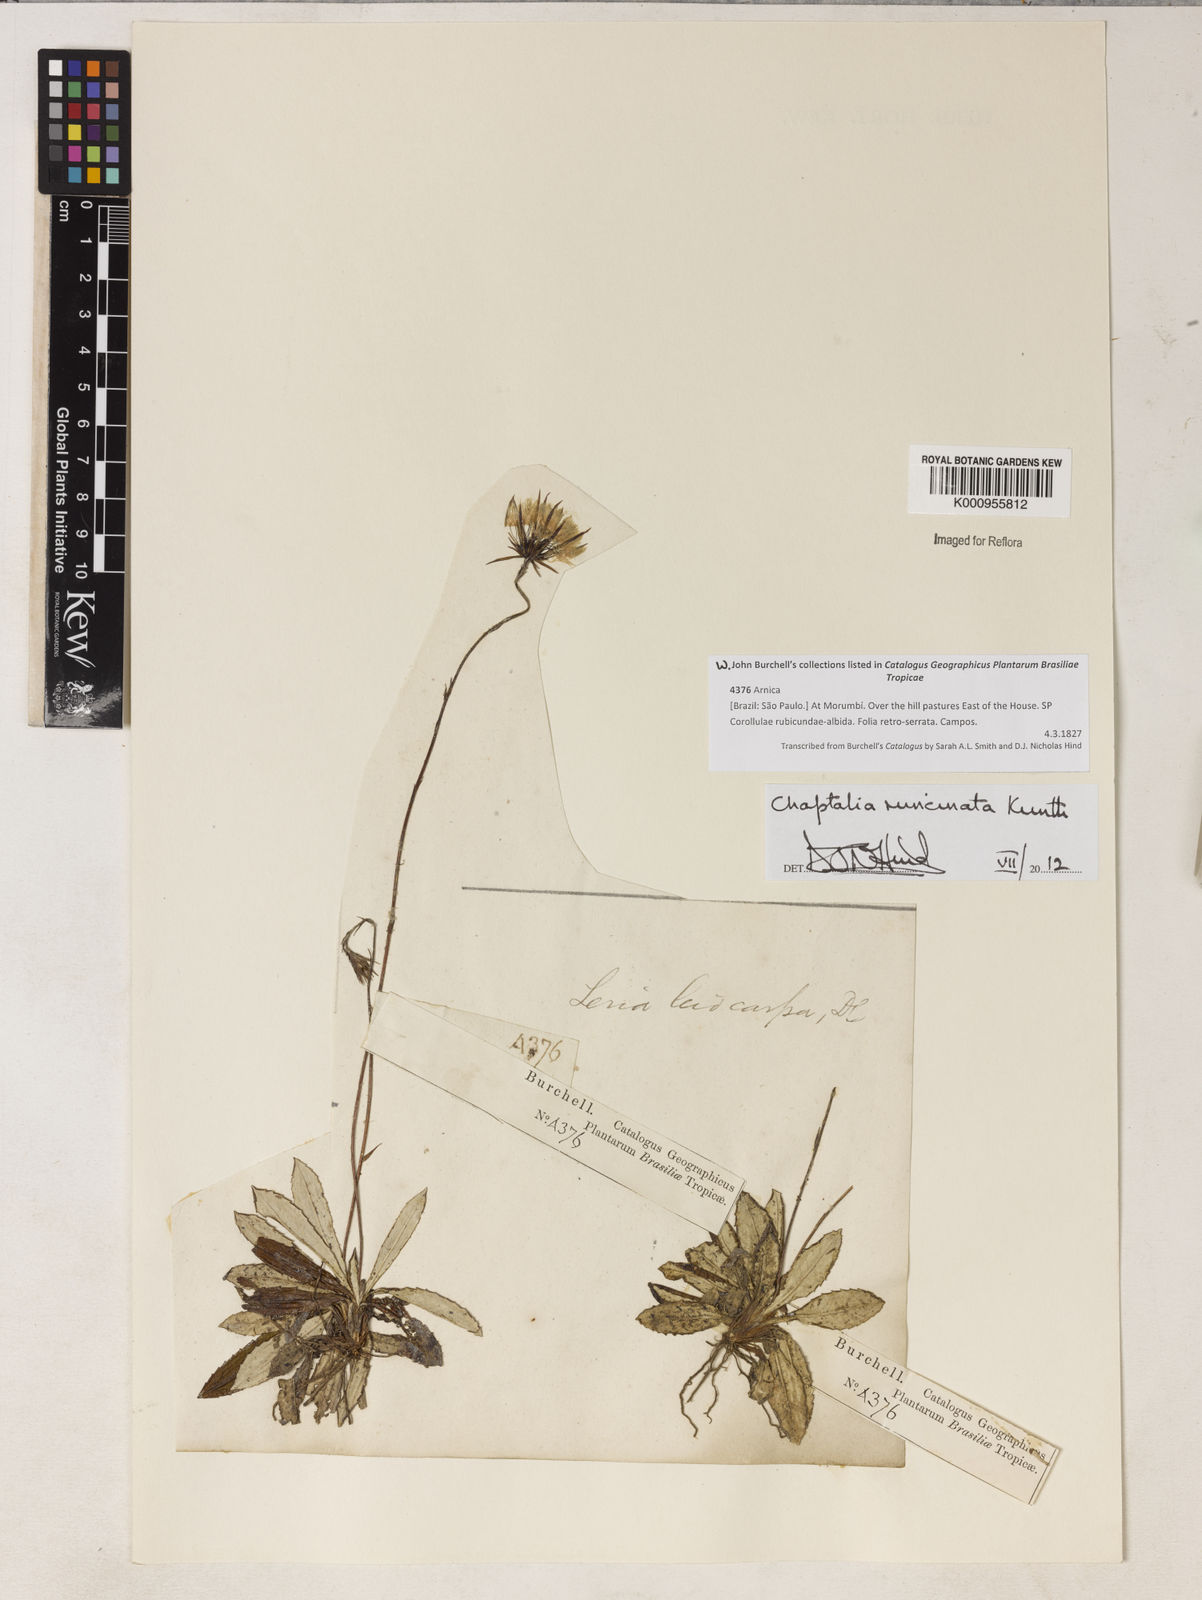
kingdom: Plantae
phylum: Tracheophyta
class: Magnoliopsida
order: Asterales
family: Asteraceae
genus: Chaptalia
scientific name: Chaptalia runcinata
